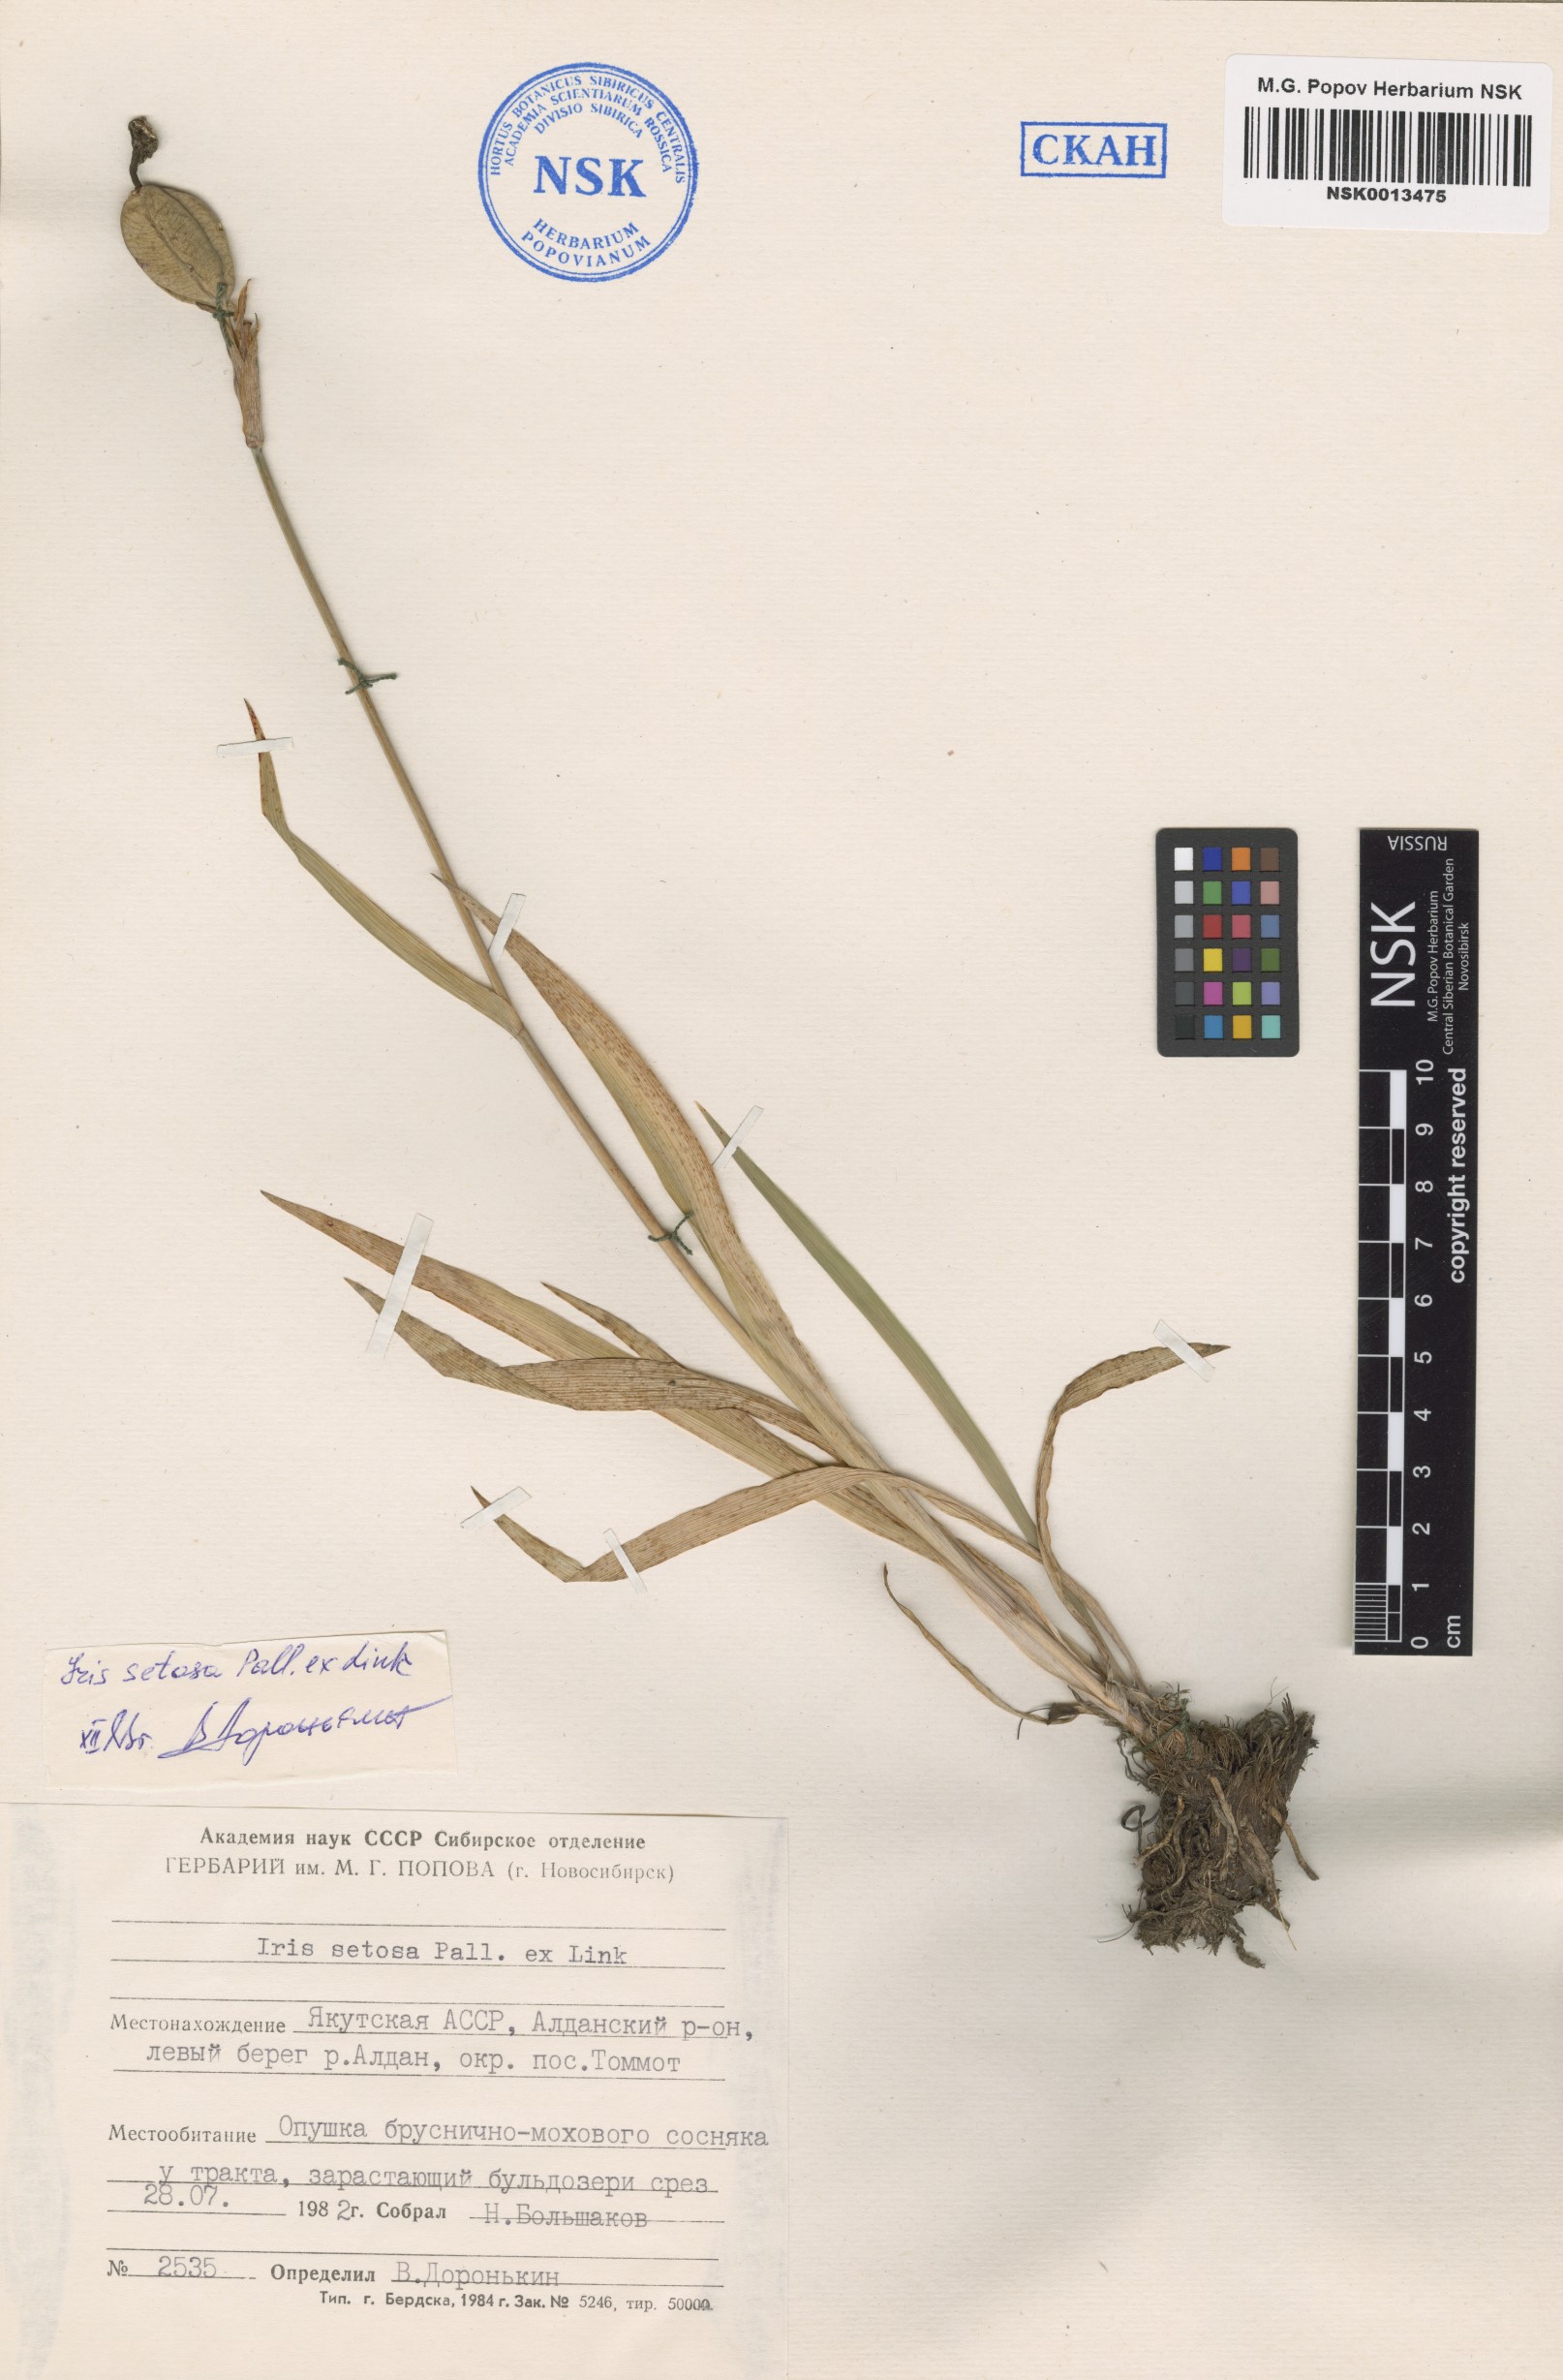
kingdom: Plantae
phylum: Tracheophyta
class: Liliopsida
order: Asparagales
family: Iridaceae
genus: Iris
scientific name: Iris setosa
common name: Arctic blue flag
